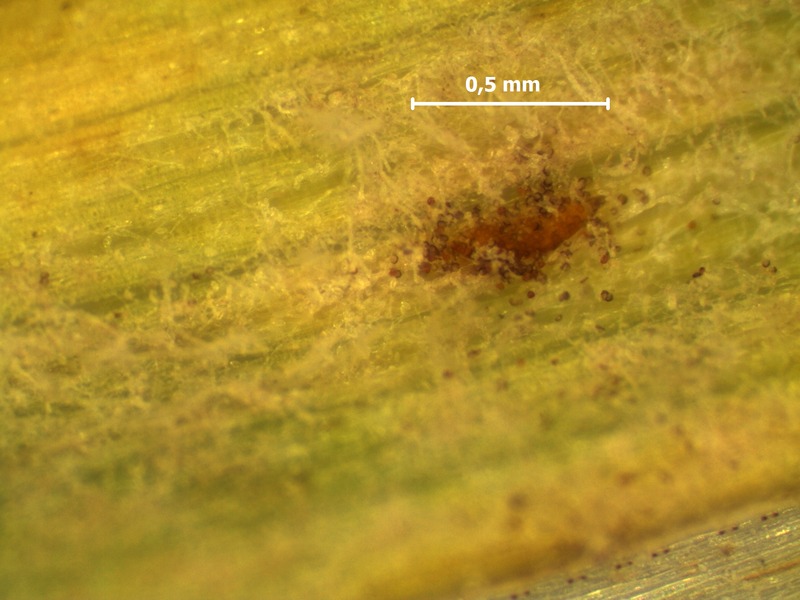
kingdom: Fungi
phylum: Ascomycota
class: Leotiomycetes
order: Helotiales
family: Erysiphaceae
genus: Blumeria
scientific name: Blumeria graminis
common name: Grass and cereal powdery mildew
